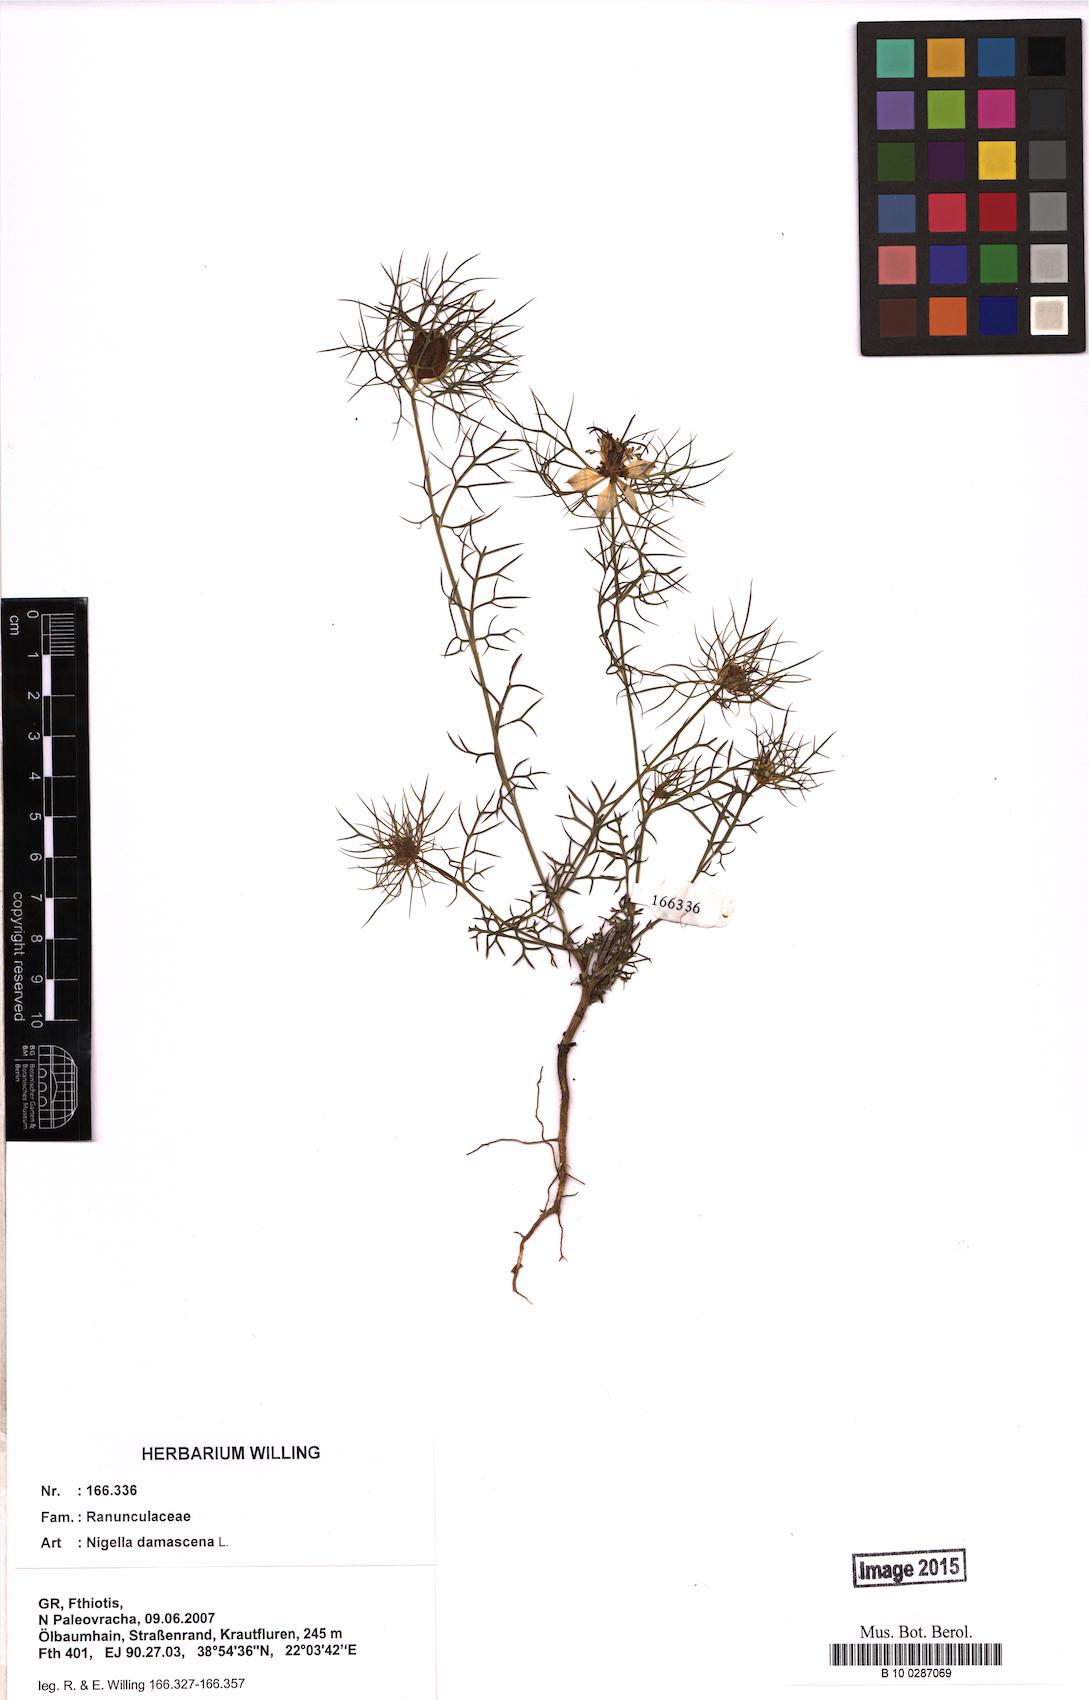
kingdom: Plantae
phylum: Tracheophyta
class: Magnoliopsida
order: Ranunculales
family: Ranunculaceae
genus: Nigella
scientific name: Nigella damascena
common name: Love-in-a-mist
